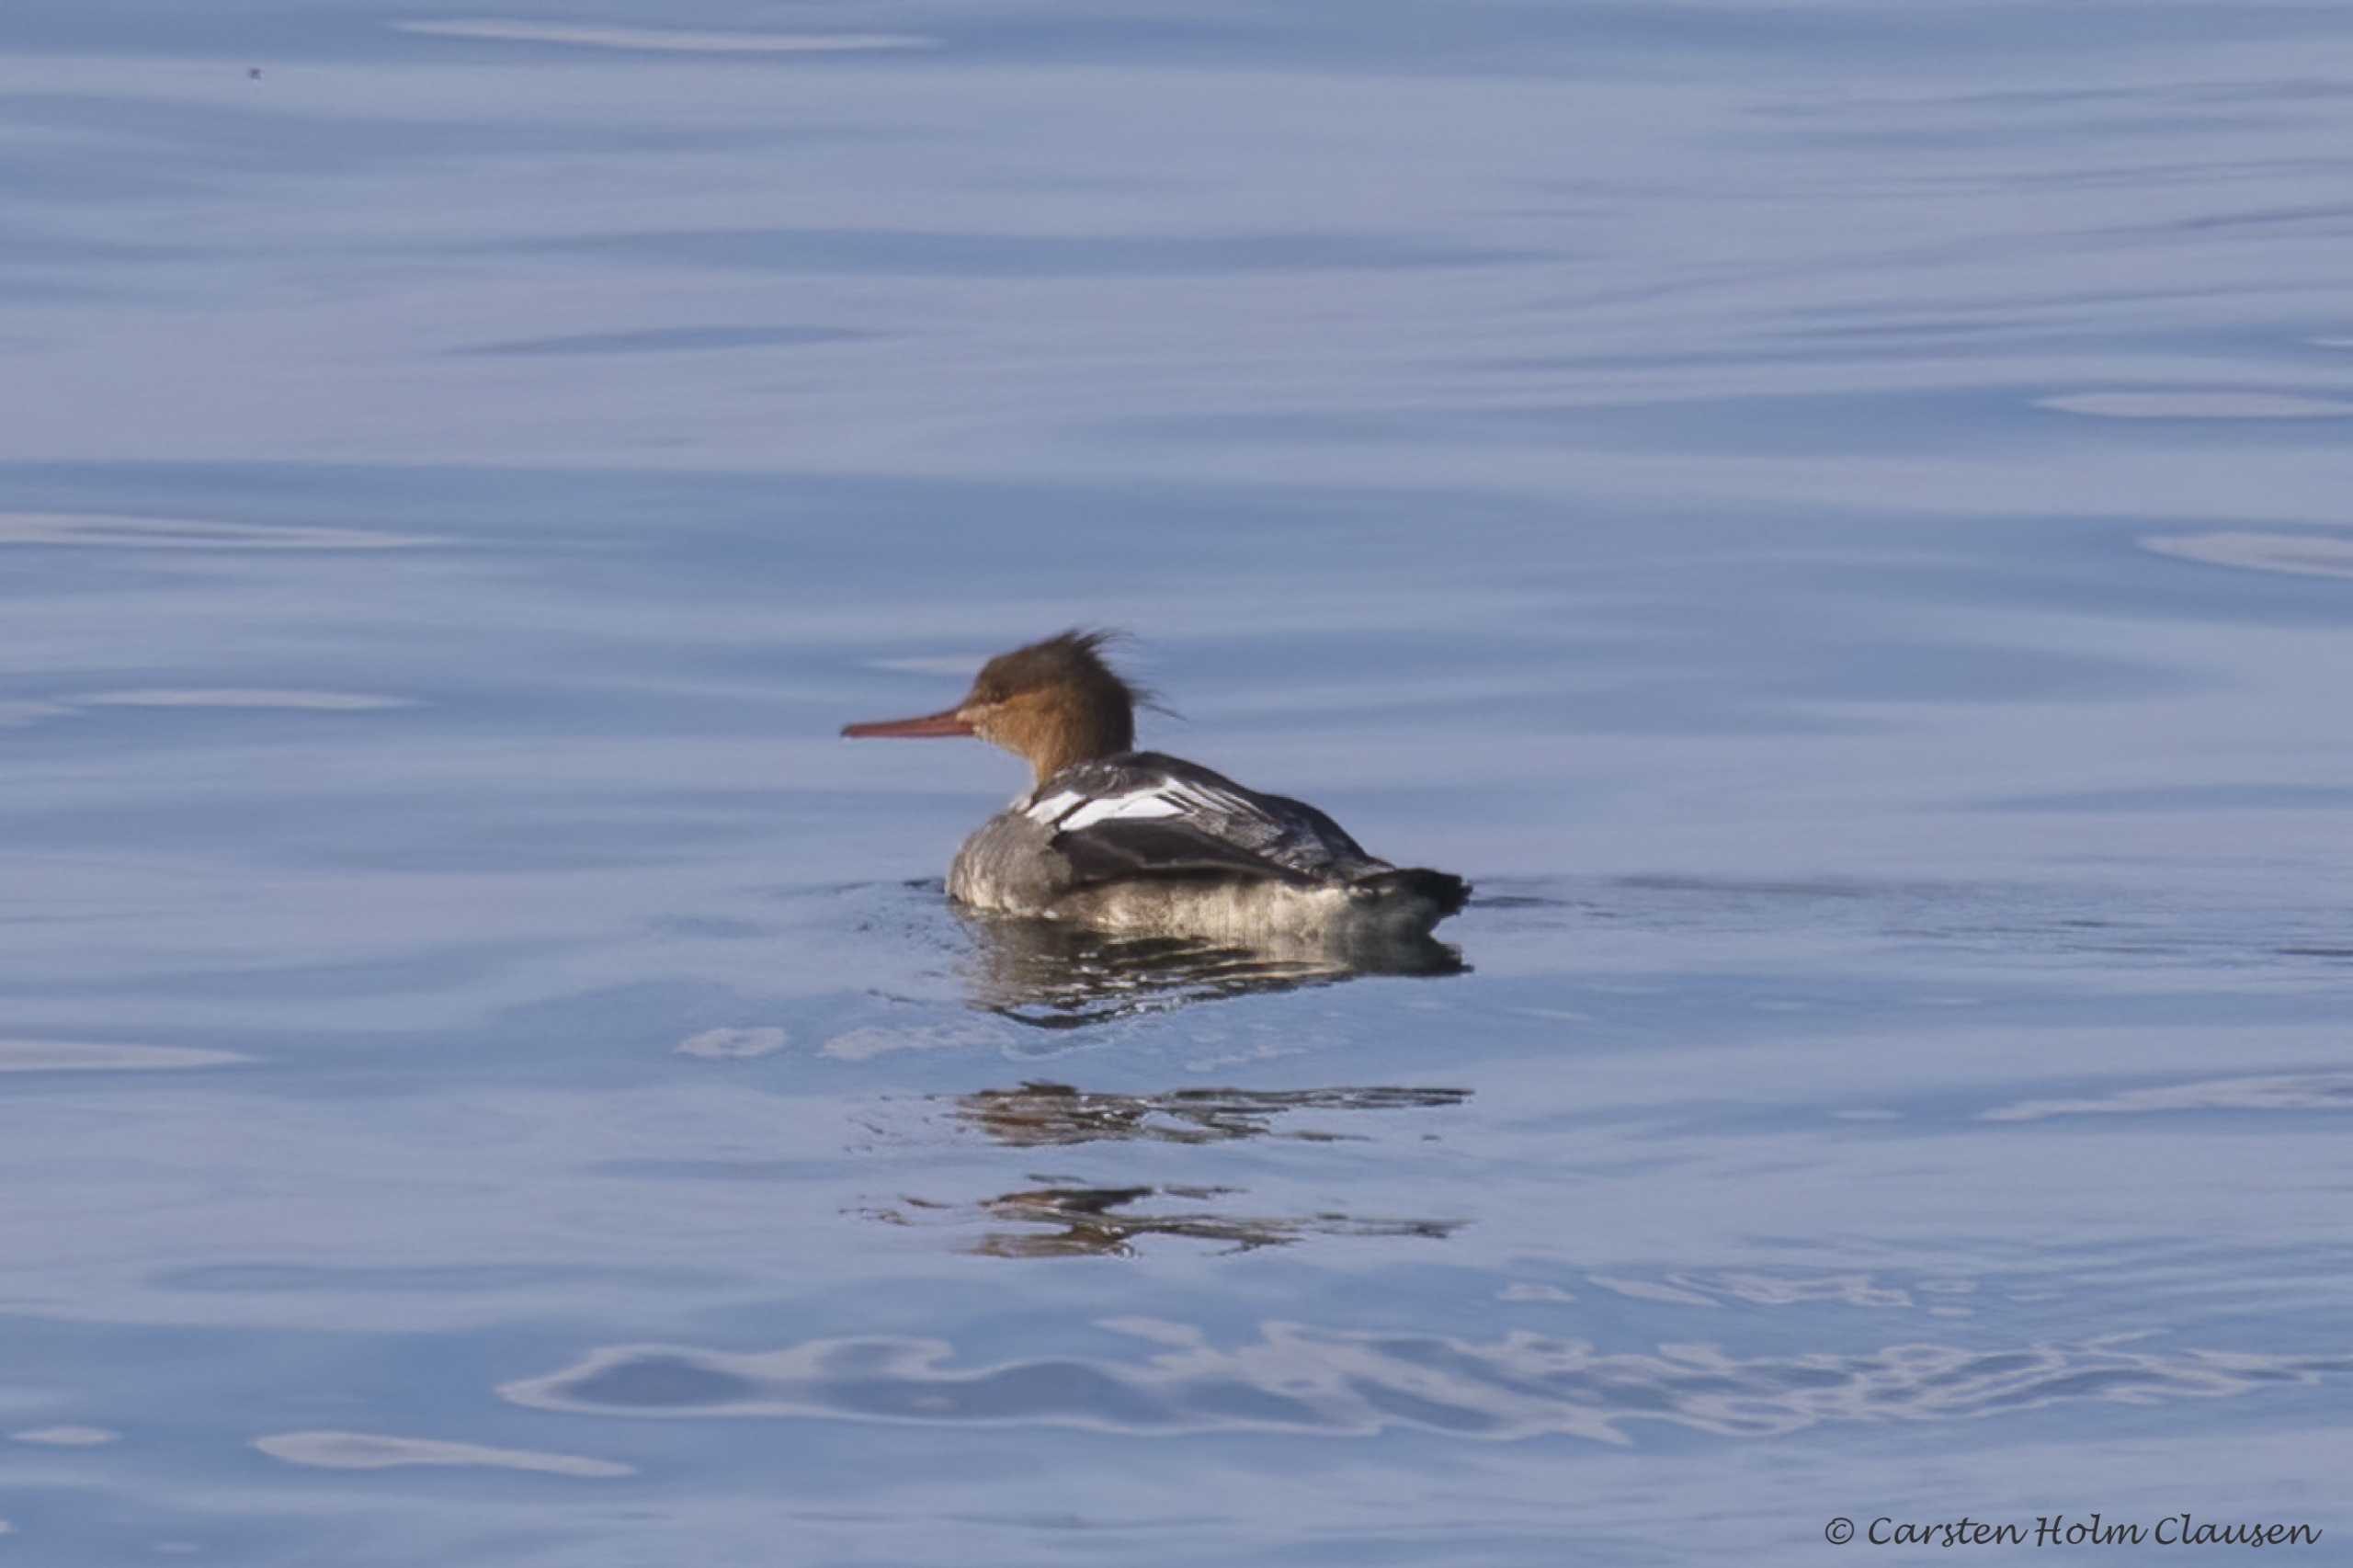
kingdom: Animalia
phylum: Chordata
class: Aves
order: Anseriformes
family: Anatidae
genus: Mergus
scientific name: Mergus serrator
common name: Toppet skallesluger
